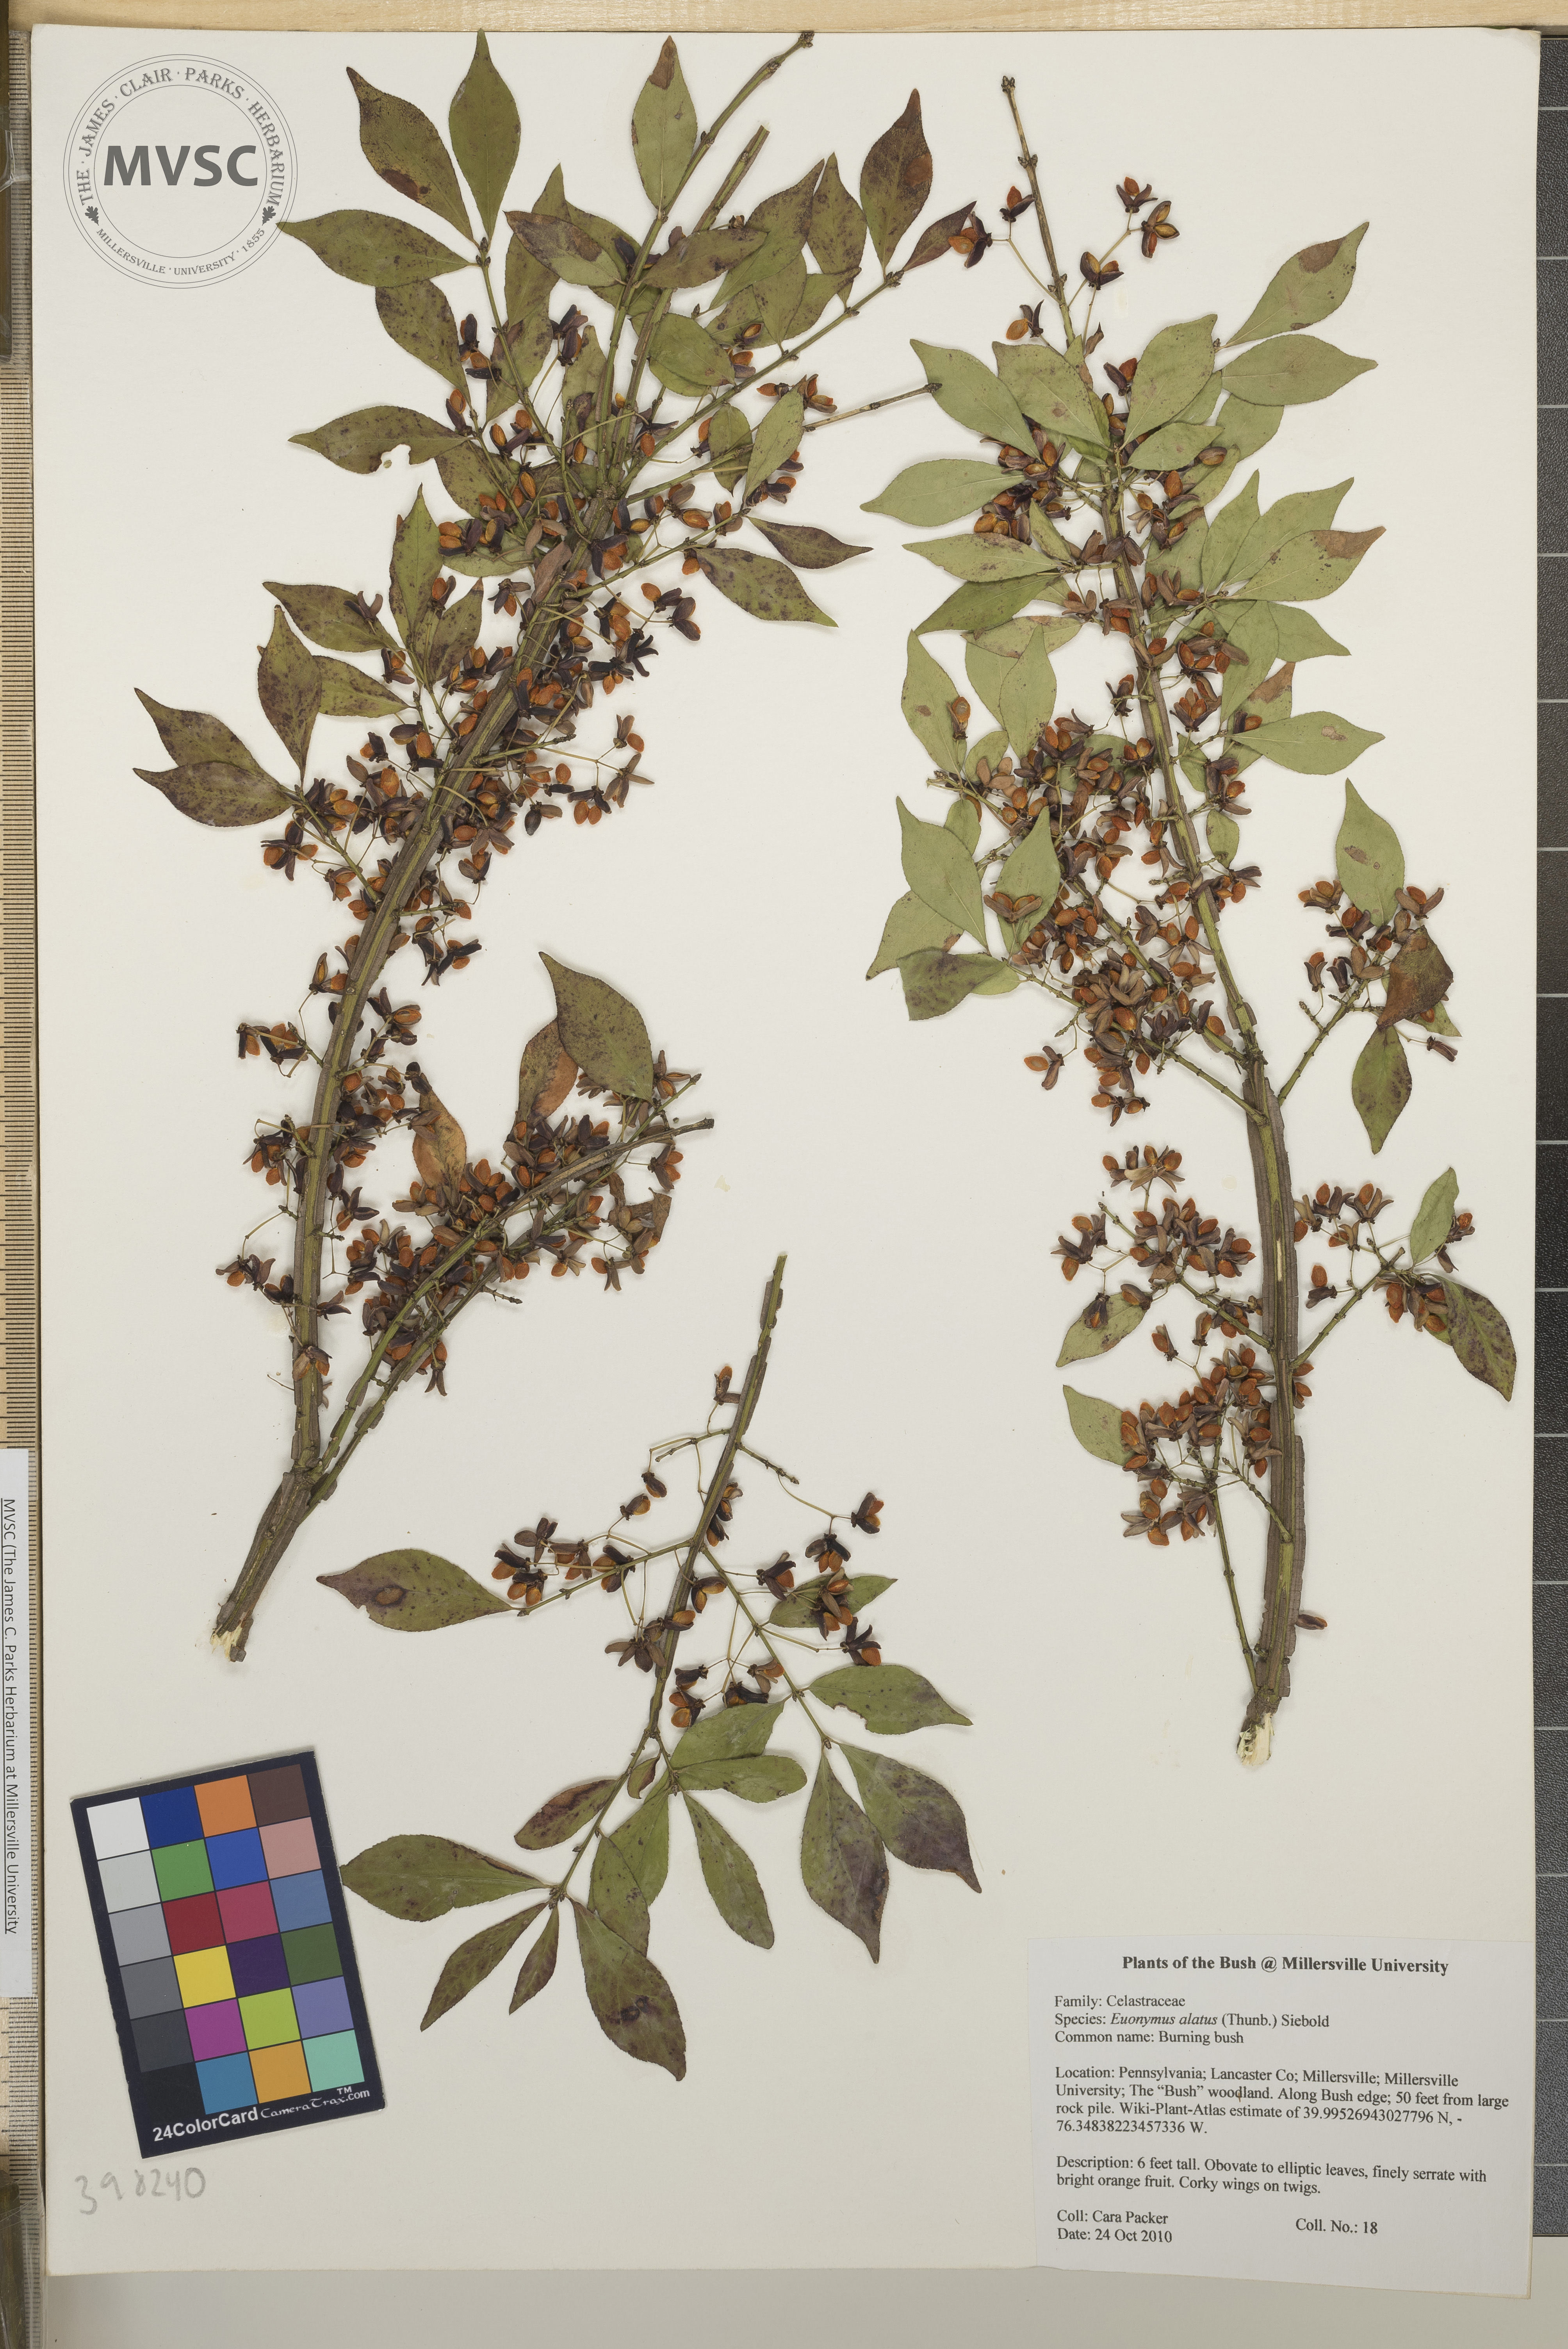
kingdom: Plantae
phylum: Tracheophyta
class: Magnoliopsida
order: Celastrales
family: Celastraceae
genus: Euonymus
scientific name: Euonymus alatus
